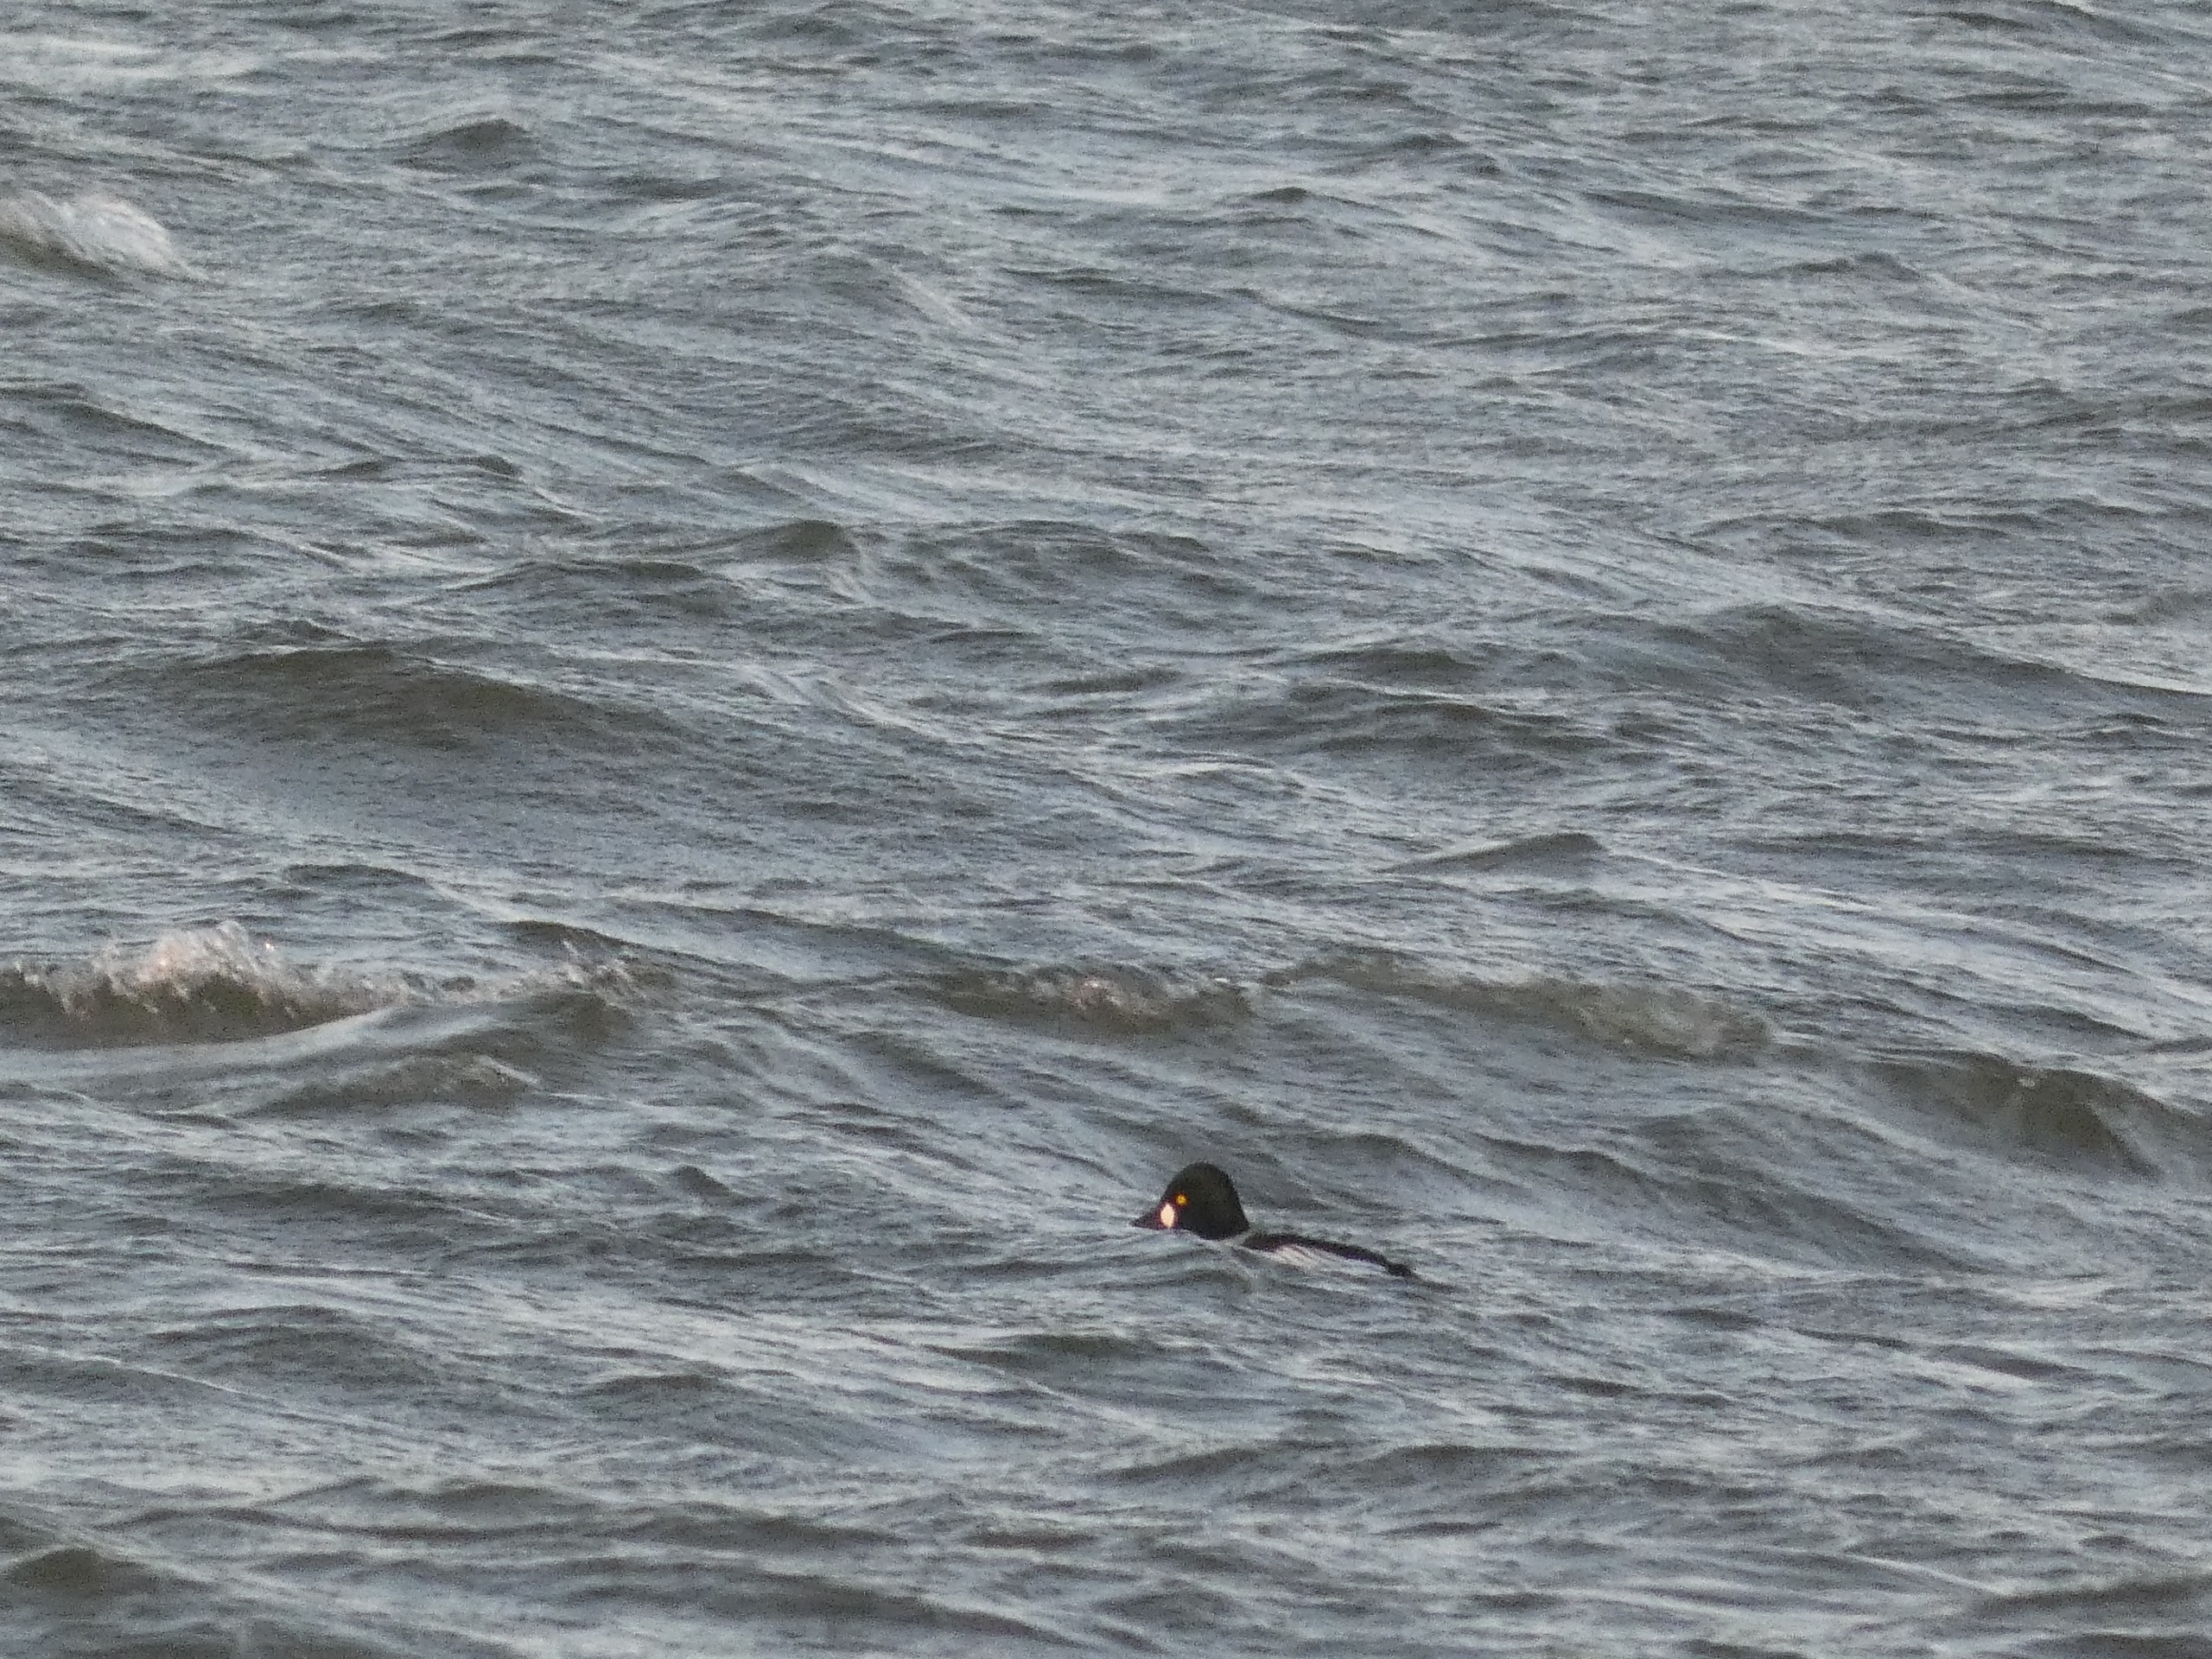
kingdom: Animalia
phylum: Chordata
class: Aves
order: Anseriformes
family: Anatidae
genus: Bucephala
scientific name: Bucephala clangula
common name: Hvinand
